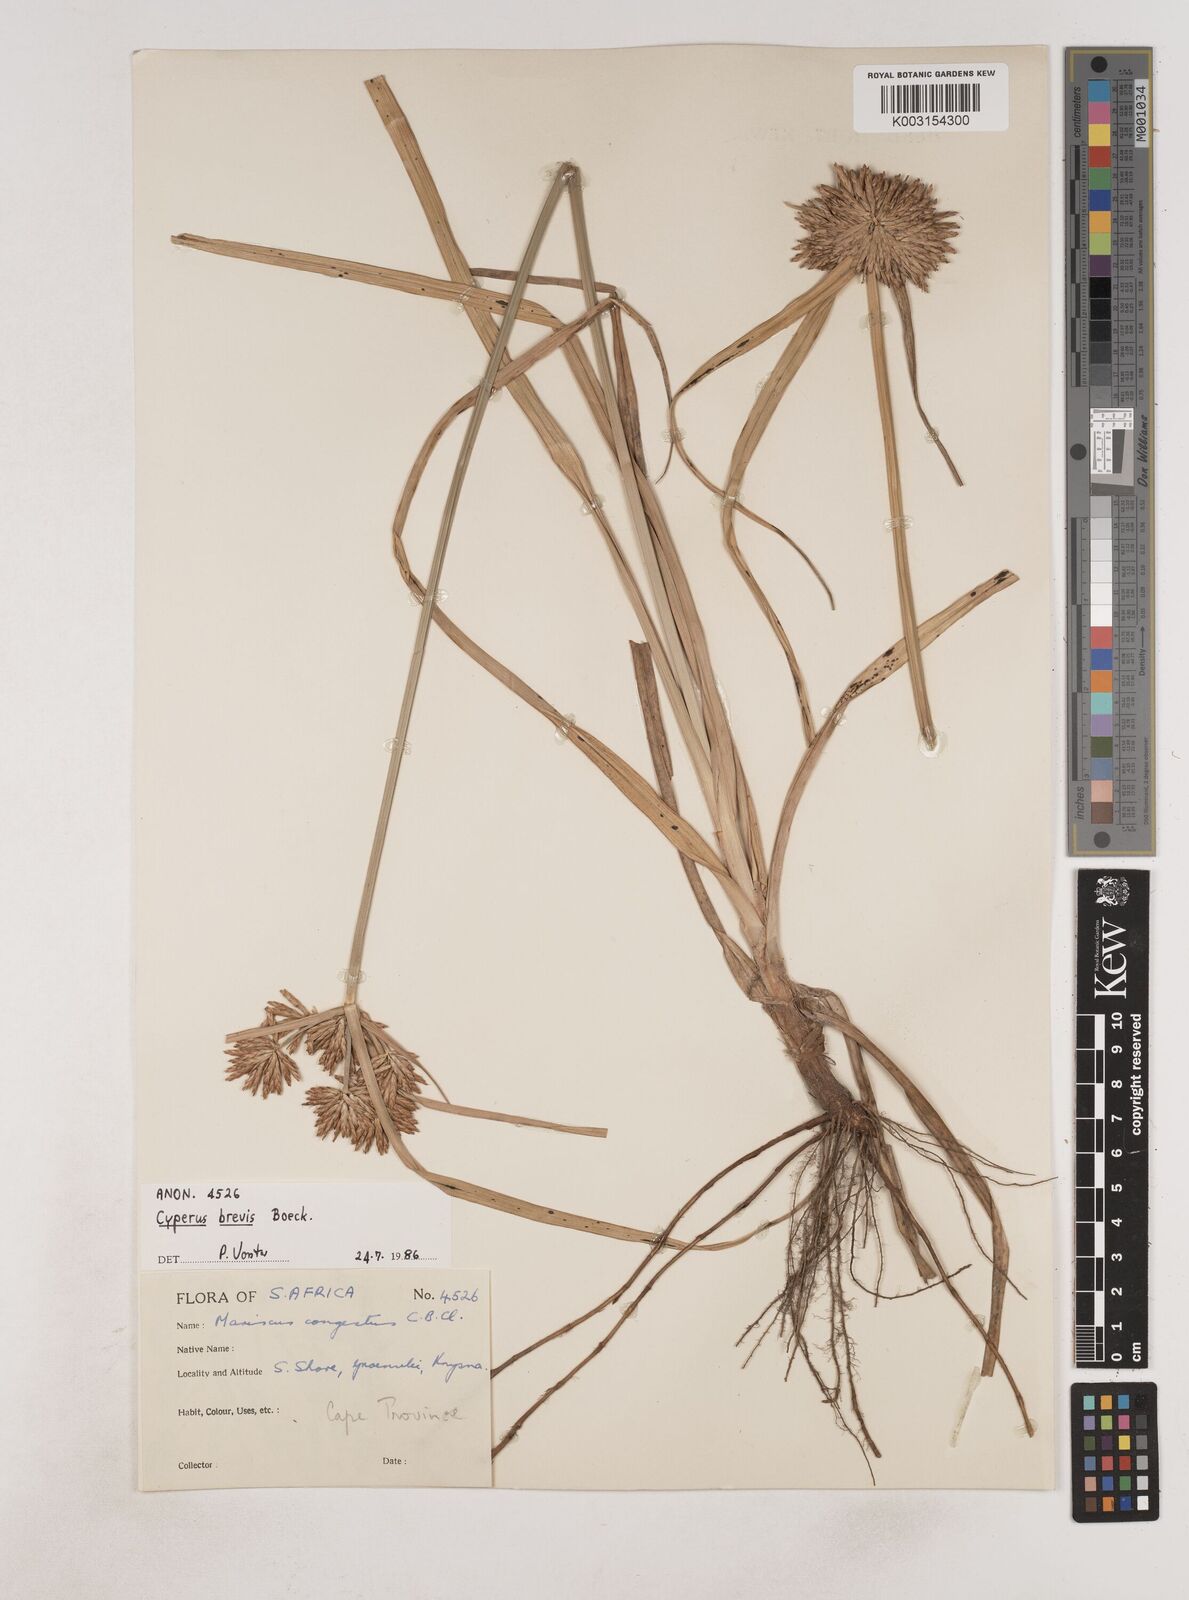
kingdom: Plantae
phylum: Tracheophyta
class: Liliopsida
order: Poales
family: Cyperaceae
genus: Cyperus
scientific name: Cyperus congestus
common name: Dense flat sedge
